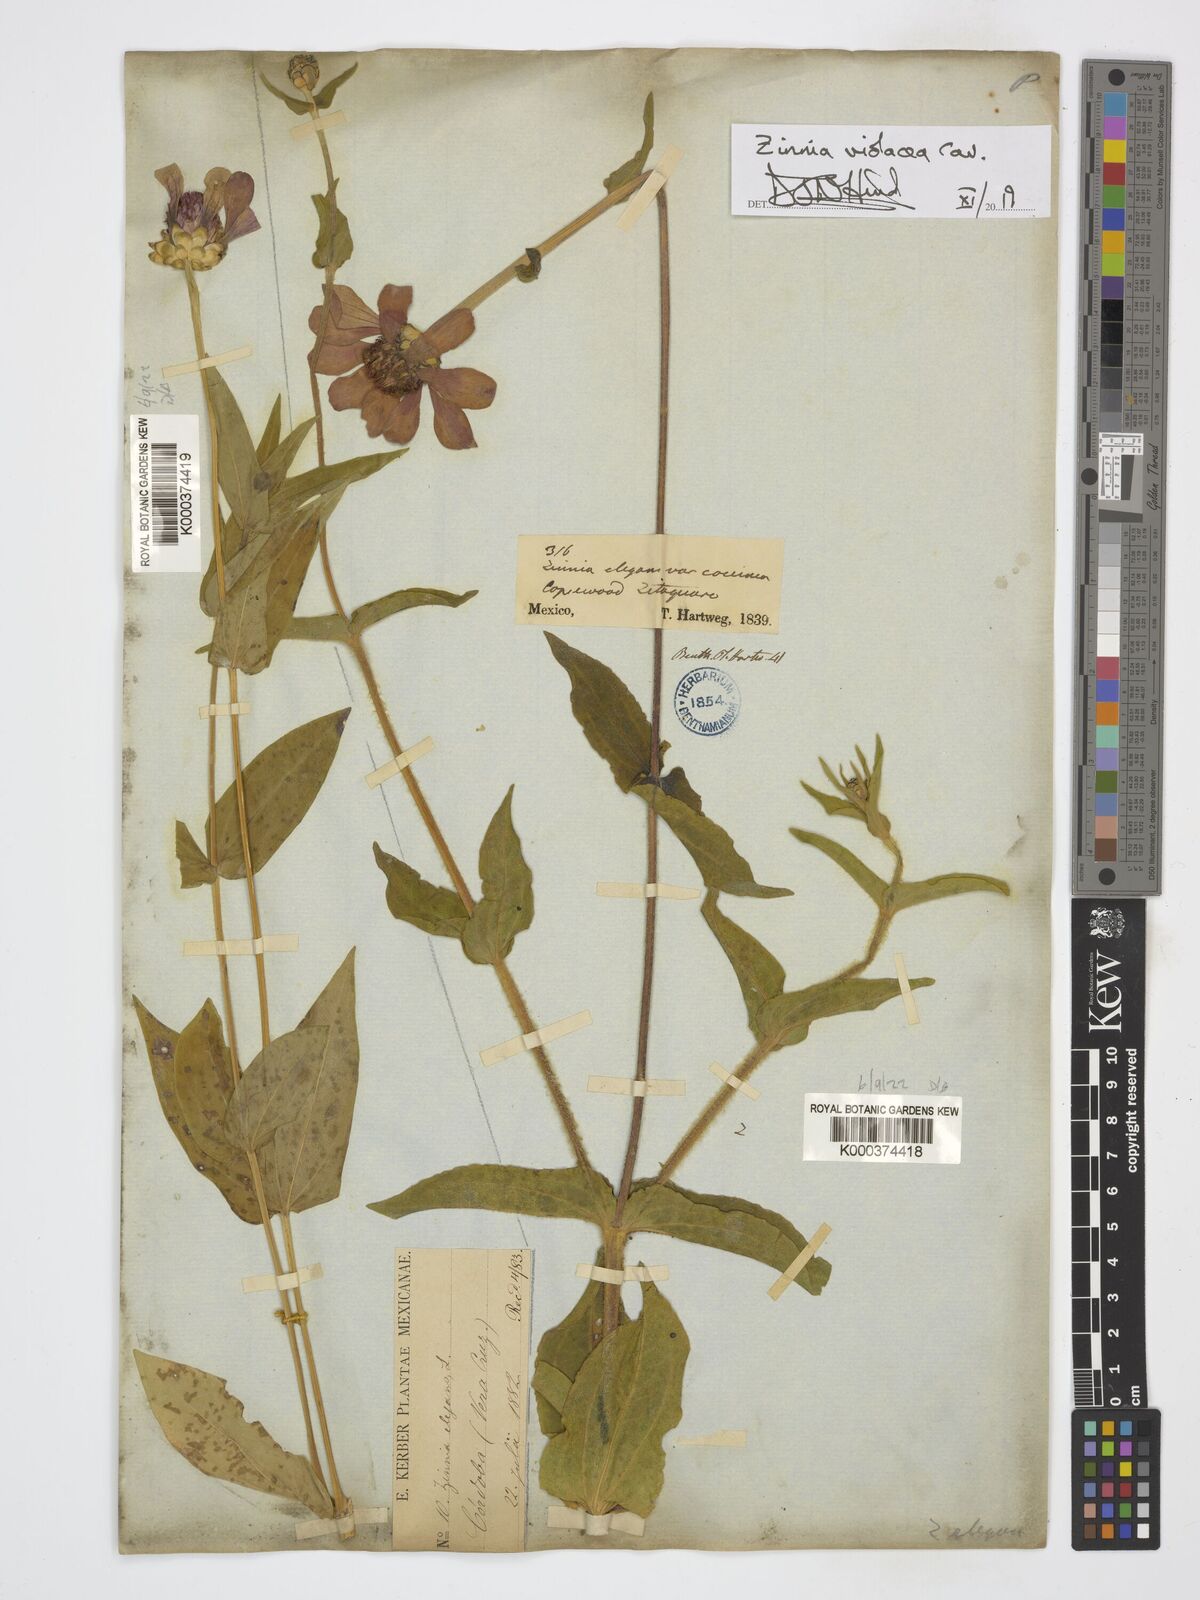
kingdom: Plantae
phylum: Tracheophyta
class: Magnoliopsida
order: Asterales
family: Asteraceae
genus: Zinnia
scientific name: Zinnia elegans
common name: Youth-and-age
